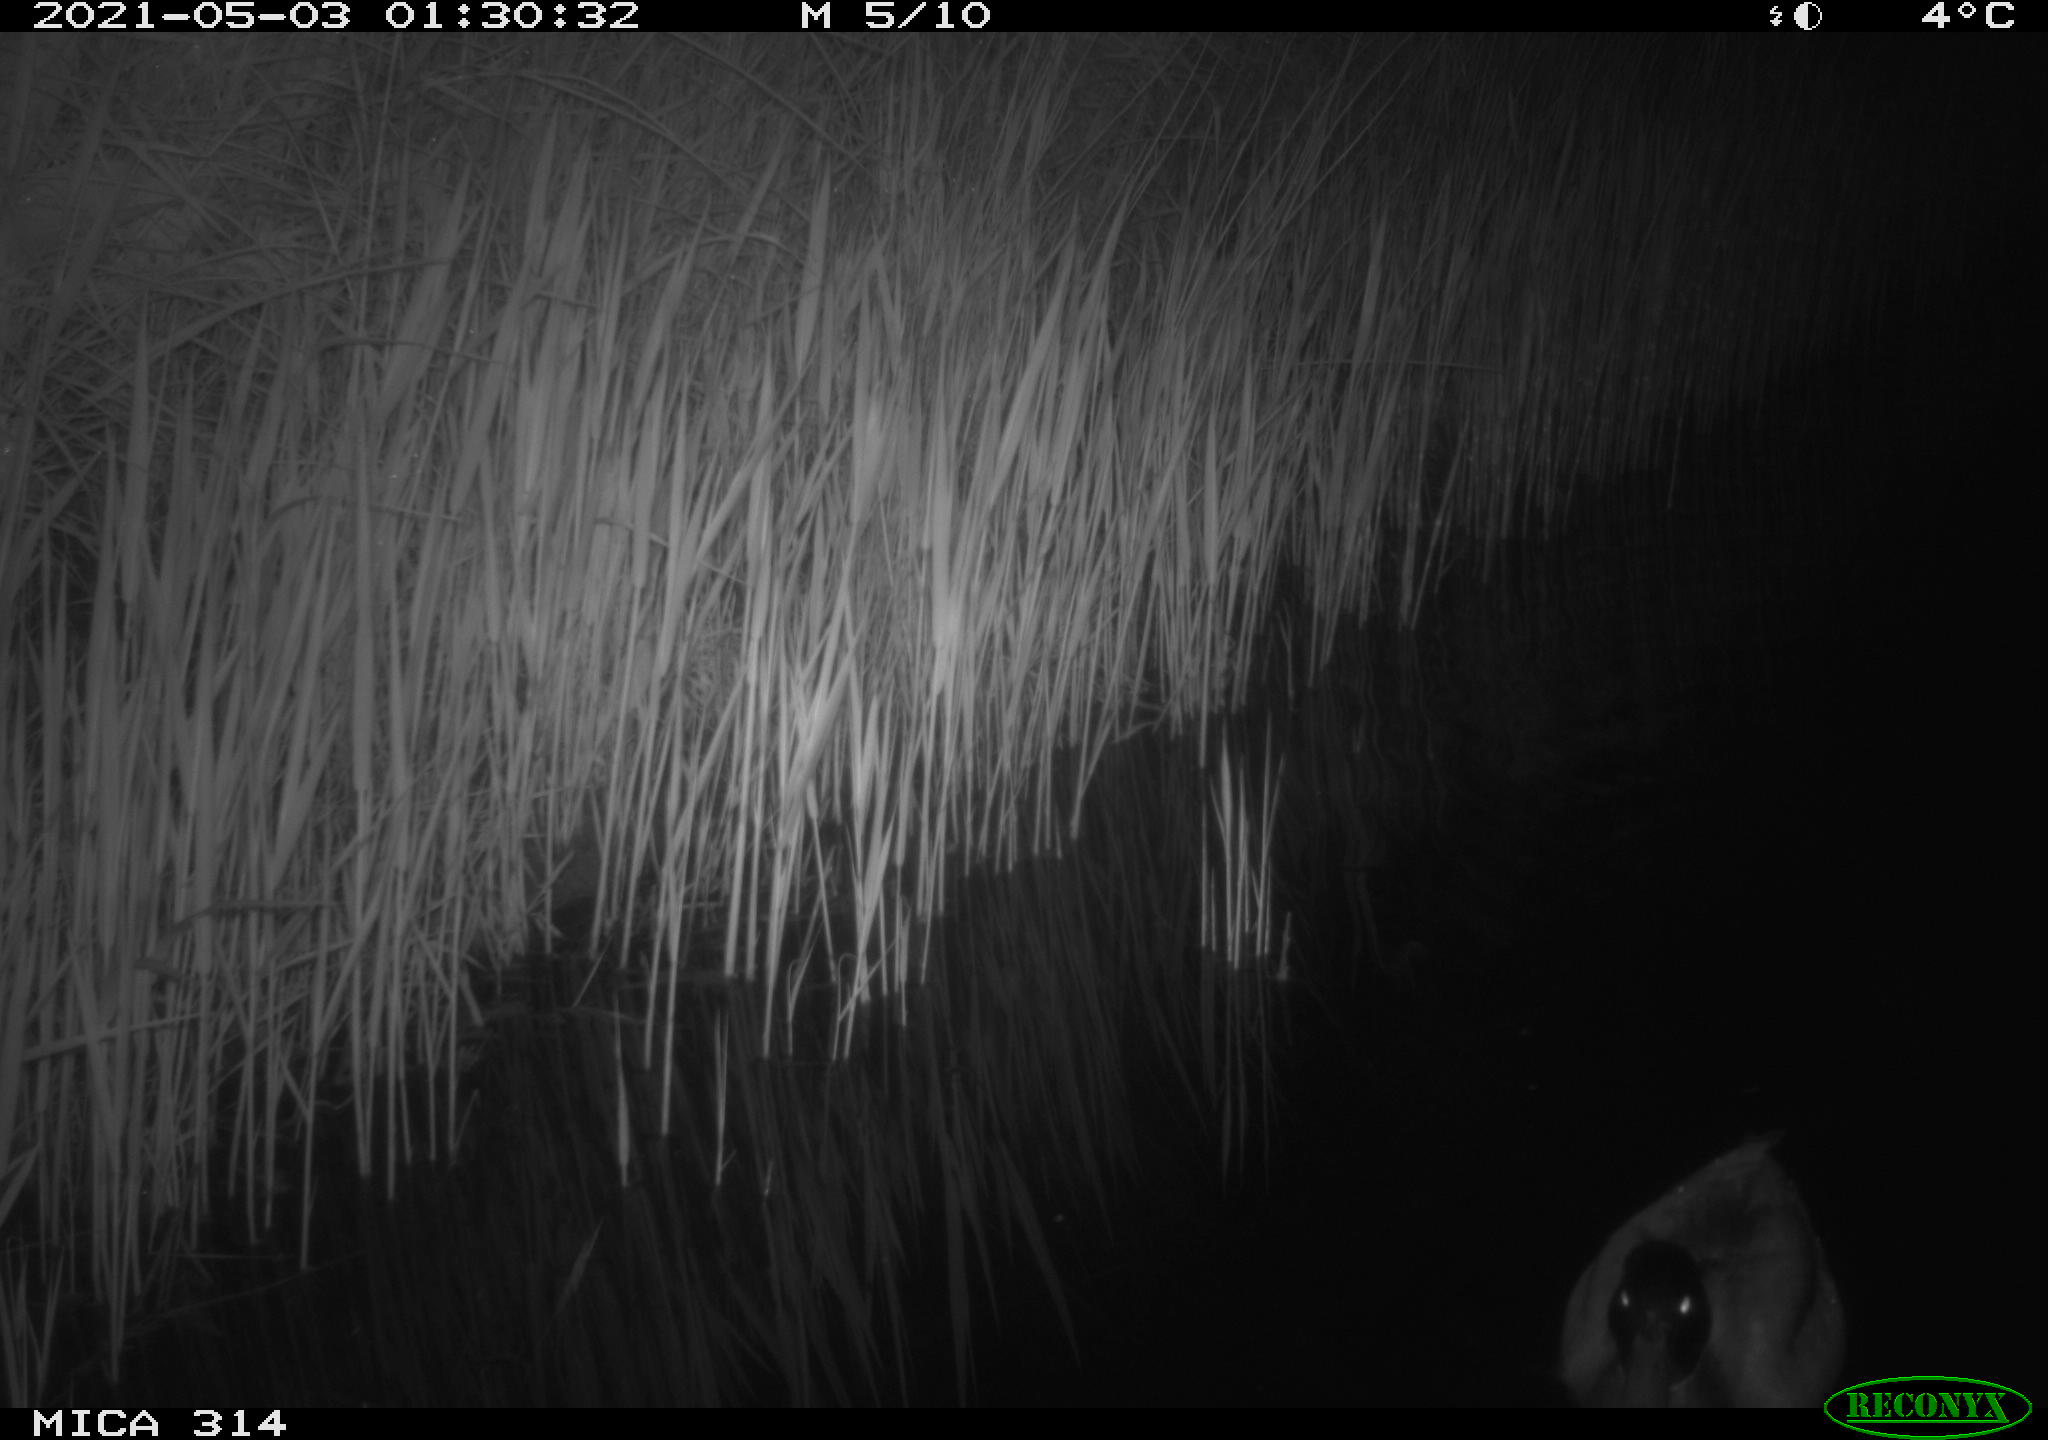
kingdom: Animalia
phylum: Chordata
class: Aves
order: Anseriformes
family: Anatidae
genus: Anas
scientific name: Anas platyrhynchos
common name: Mallard
